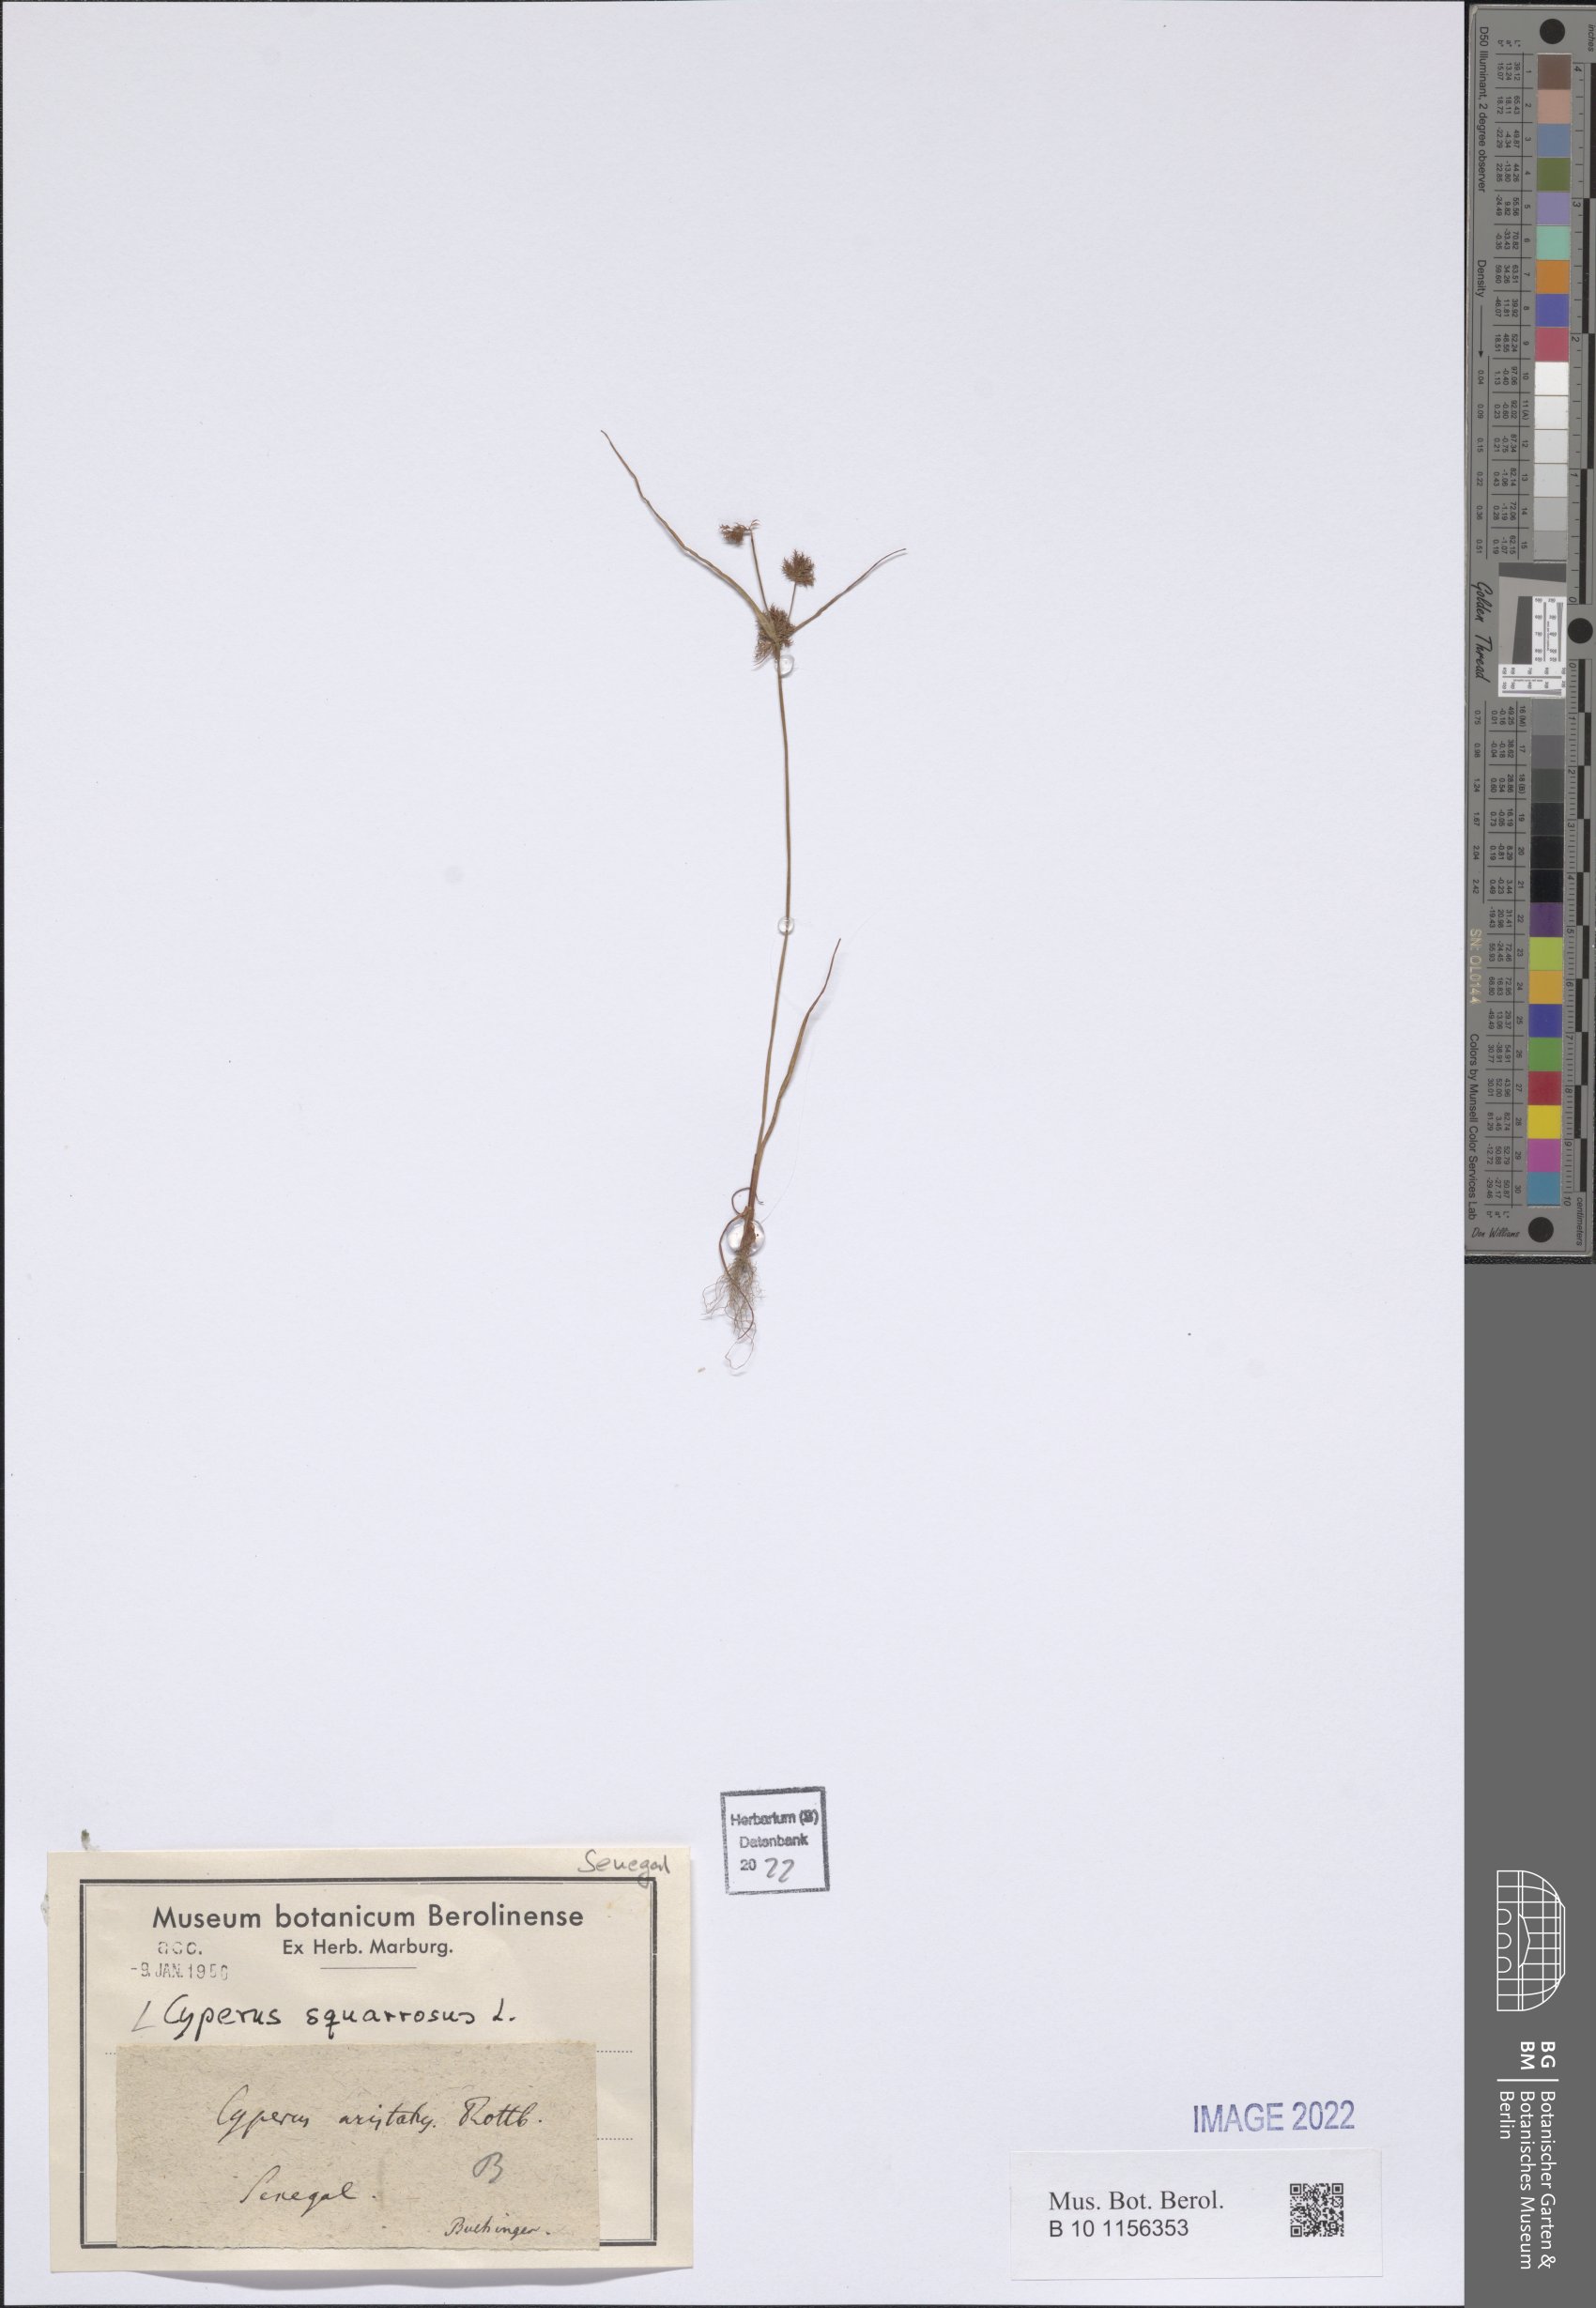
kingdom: Plantae
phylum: Tracheophyta
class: Liliopsida
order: Poales
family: Cyperaceae
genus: Cyperus
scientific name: Cyperus squarrosus
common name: Awned cyperus
